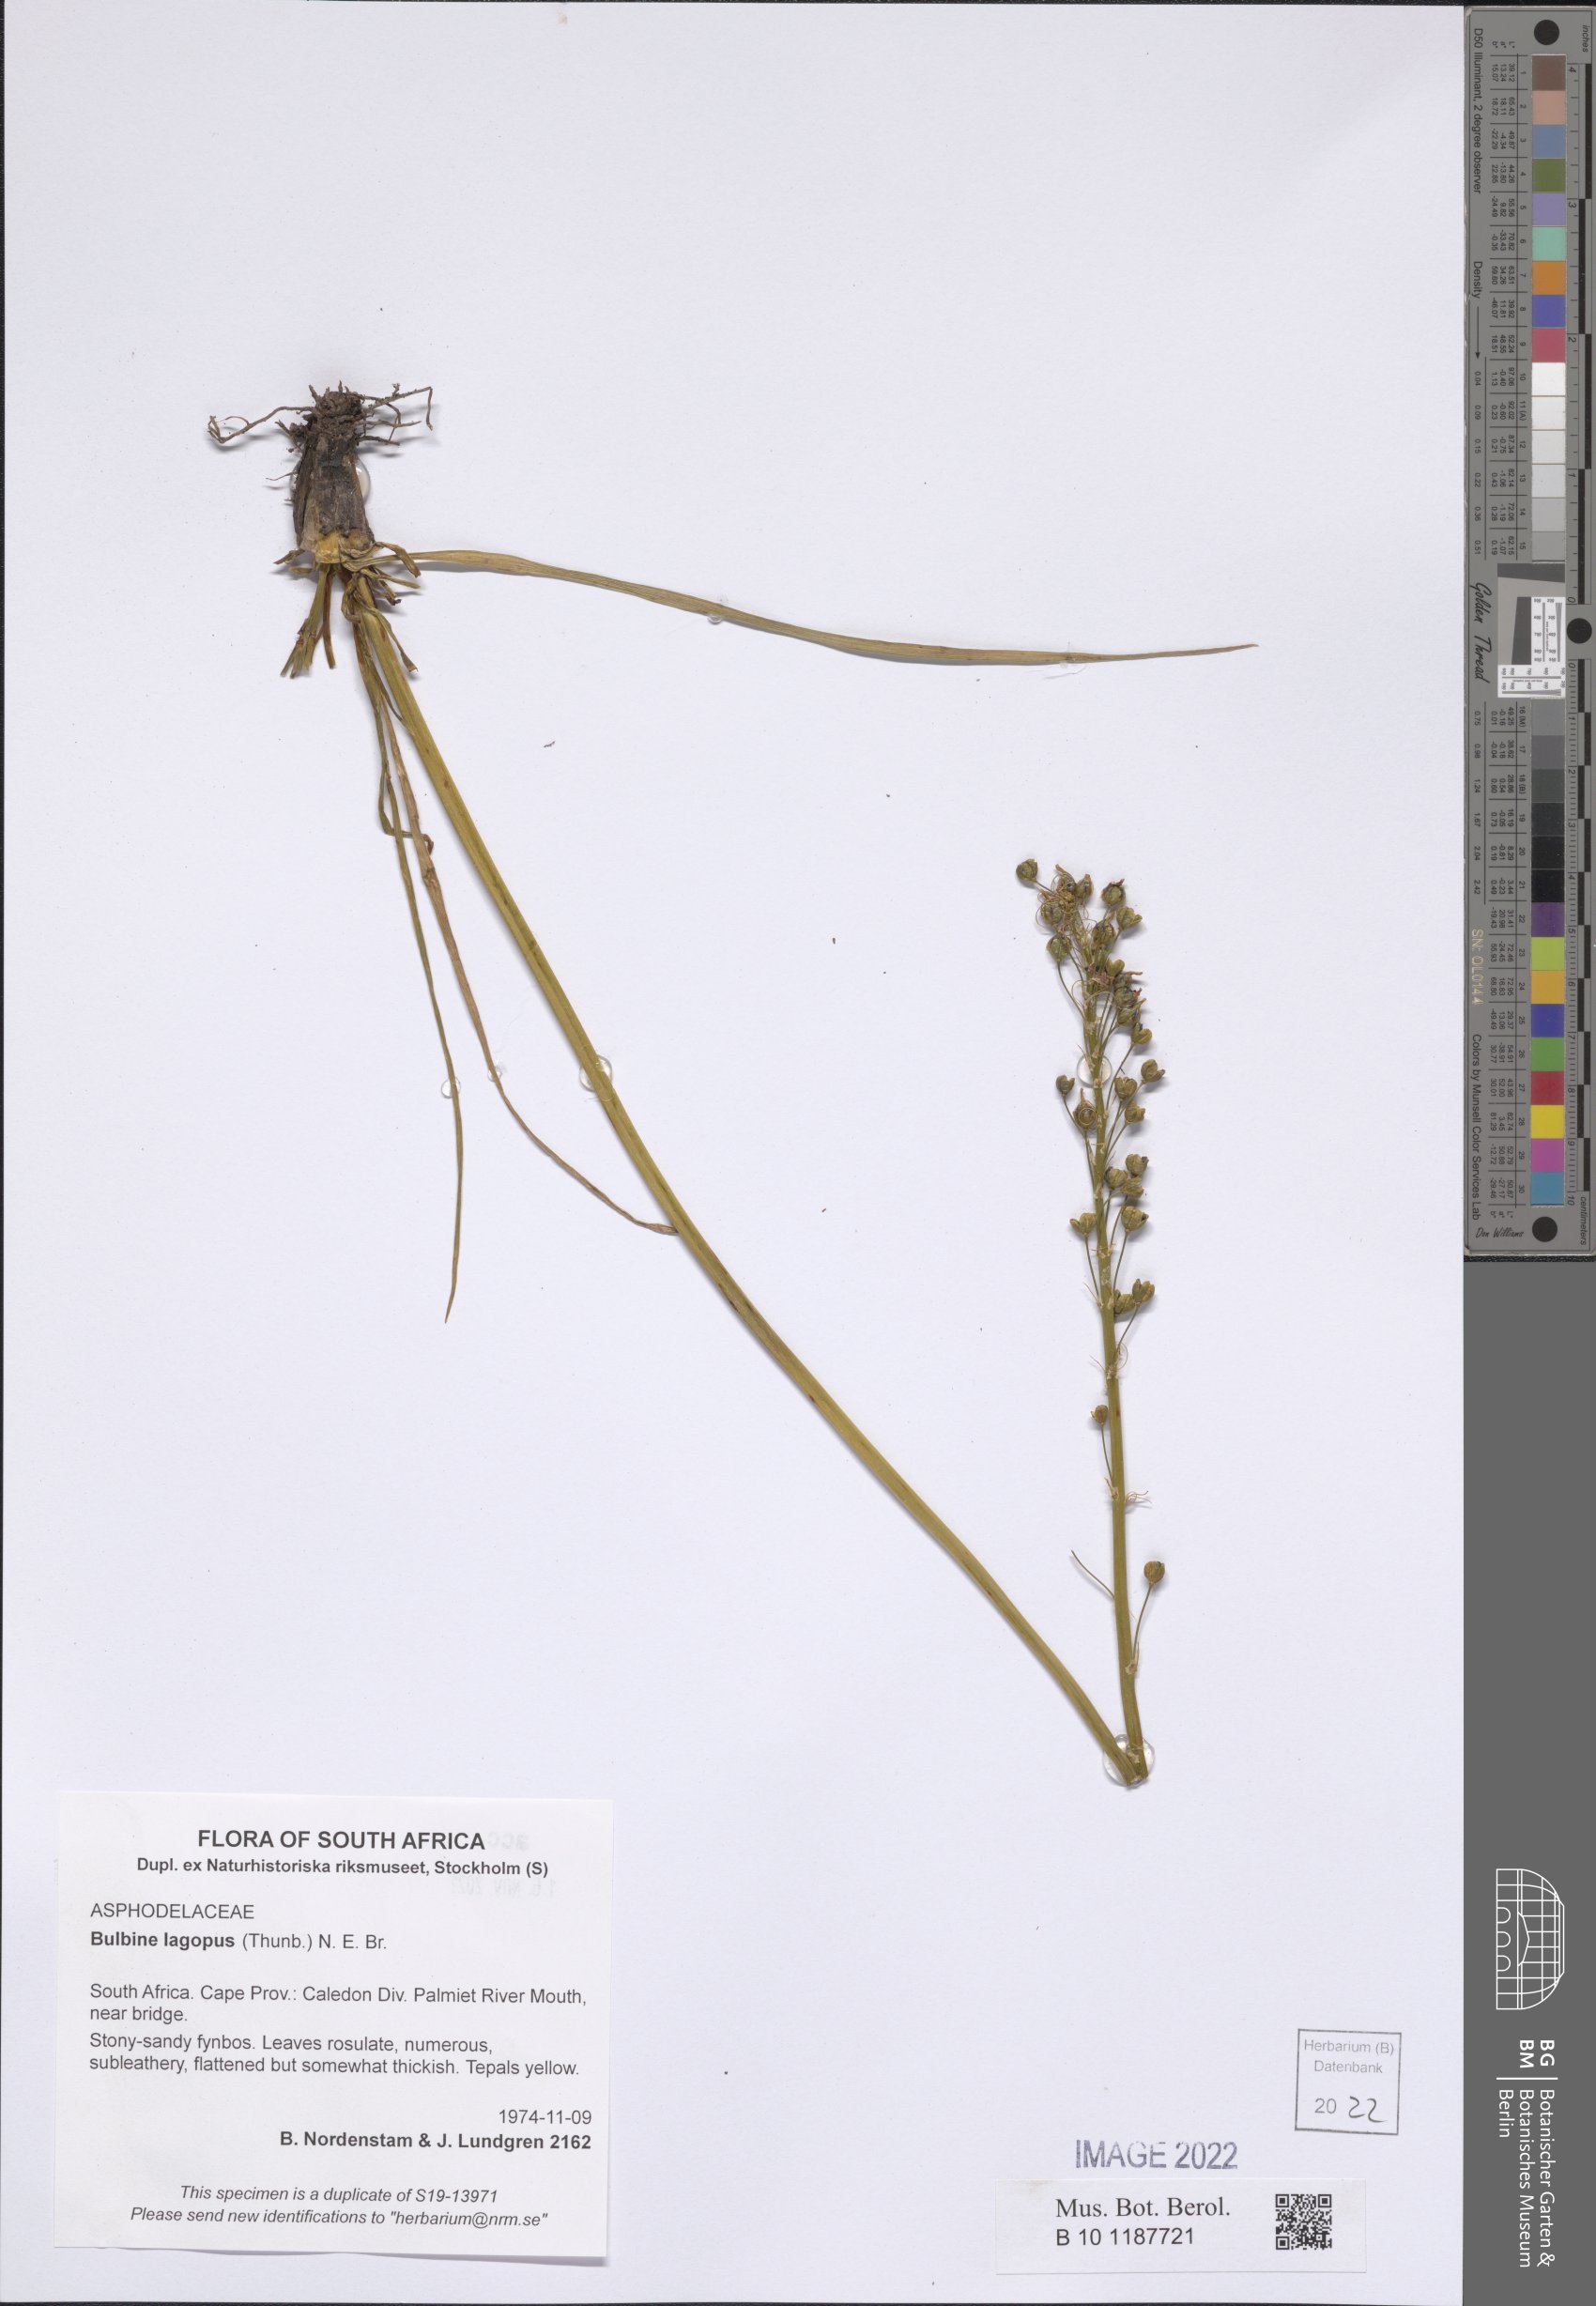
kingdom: Plantae
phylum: Tracheophyta
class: Liliopsida
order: Asparagales
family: Asphodelaceae
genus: Bulbine
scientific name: Bulbine lagopus
